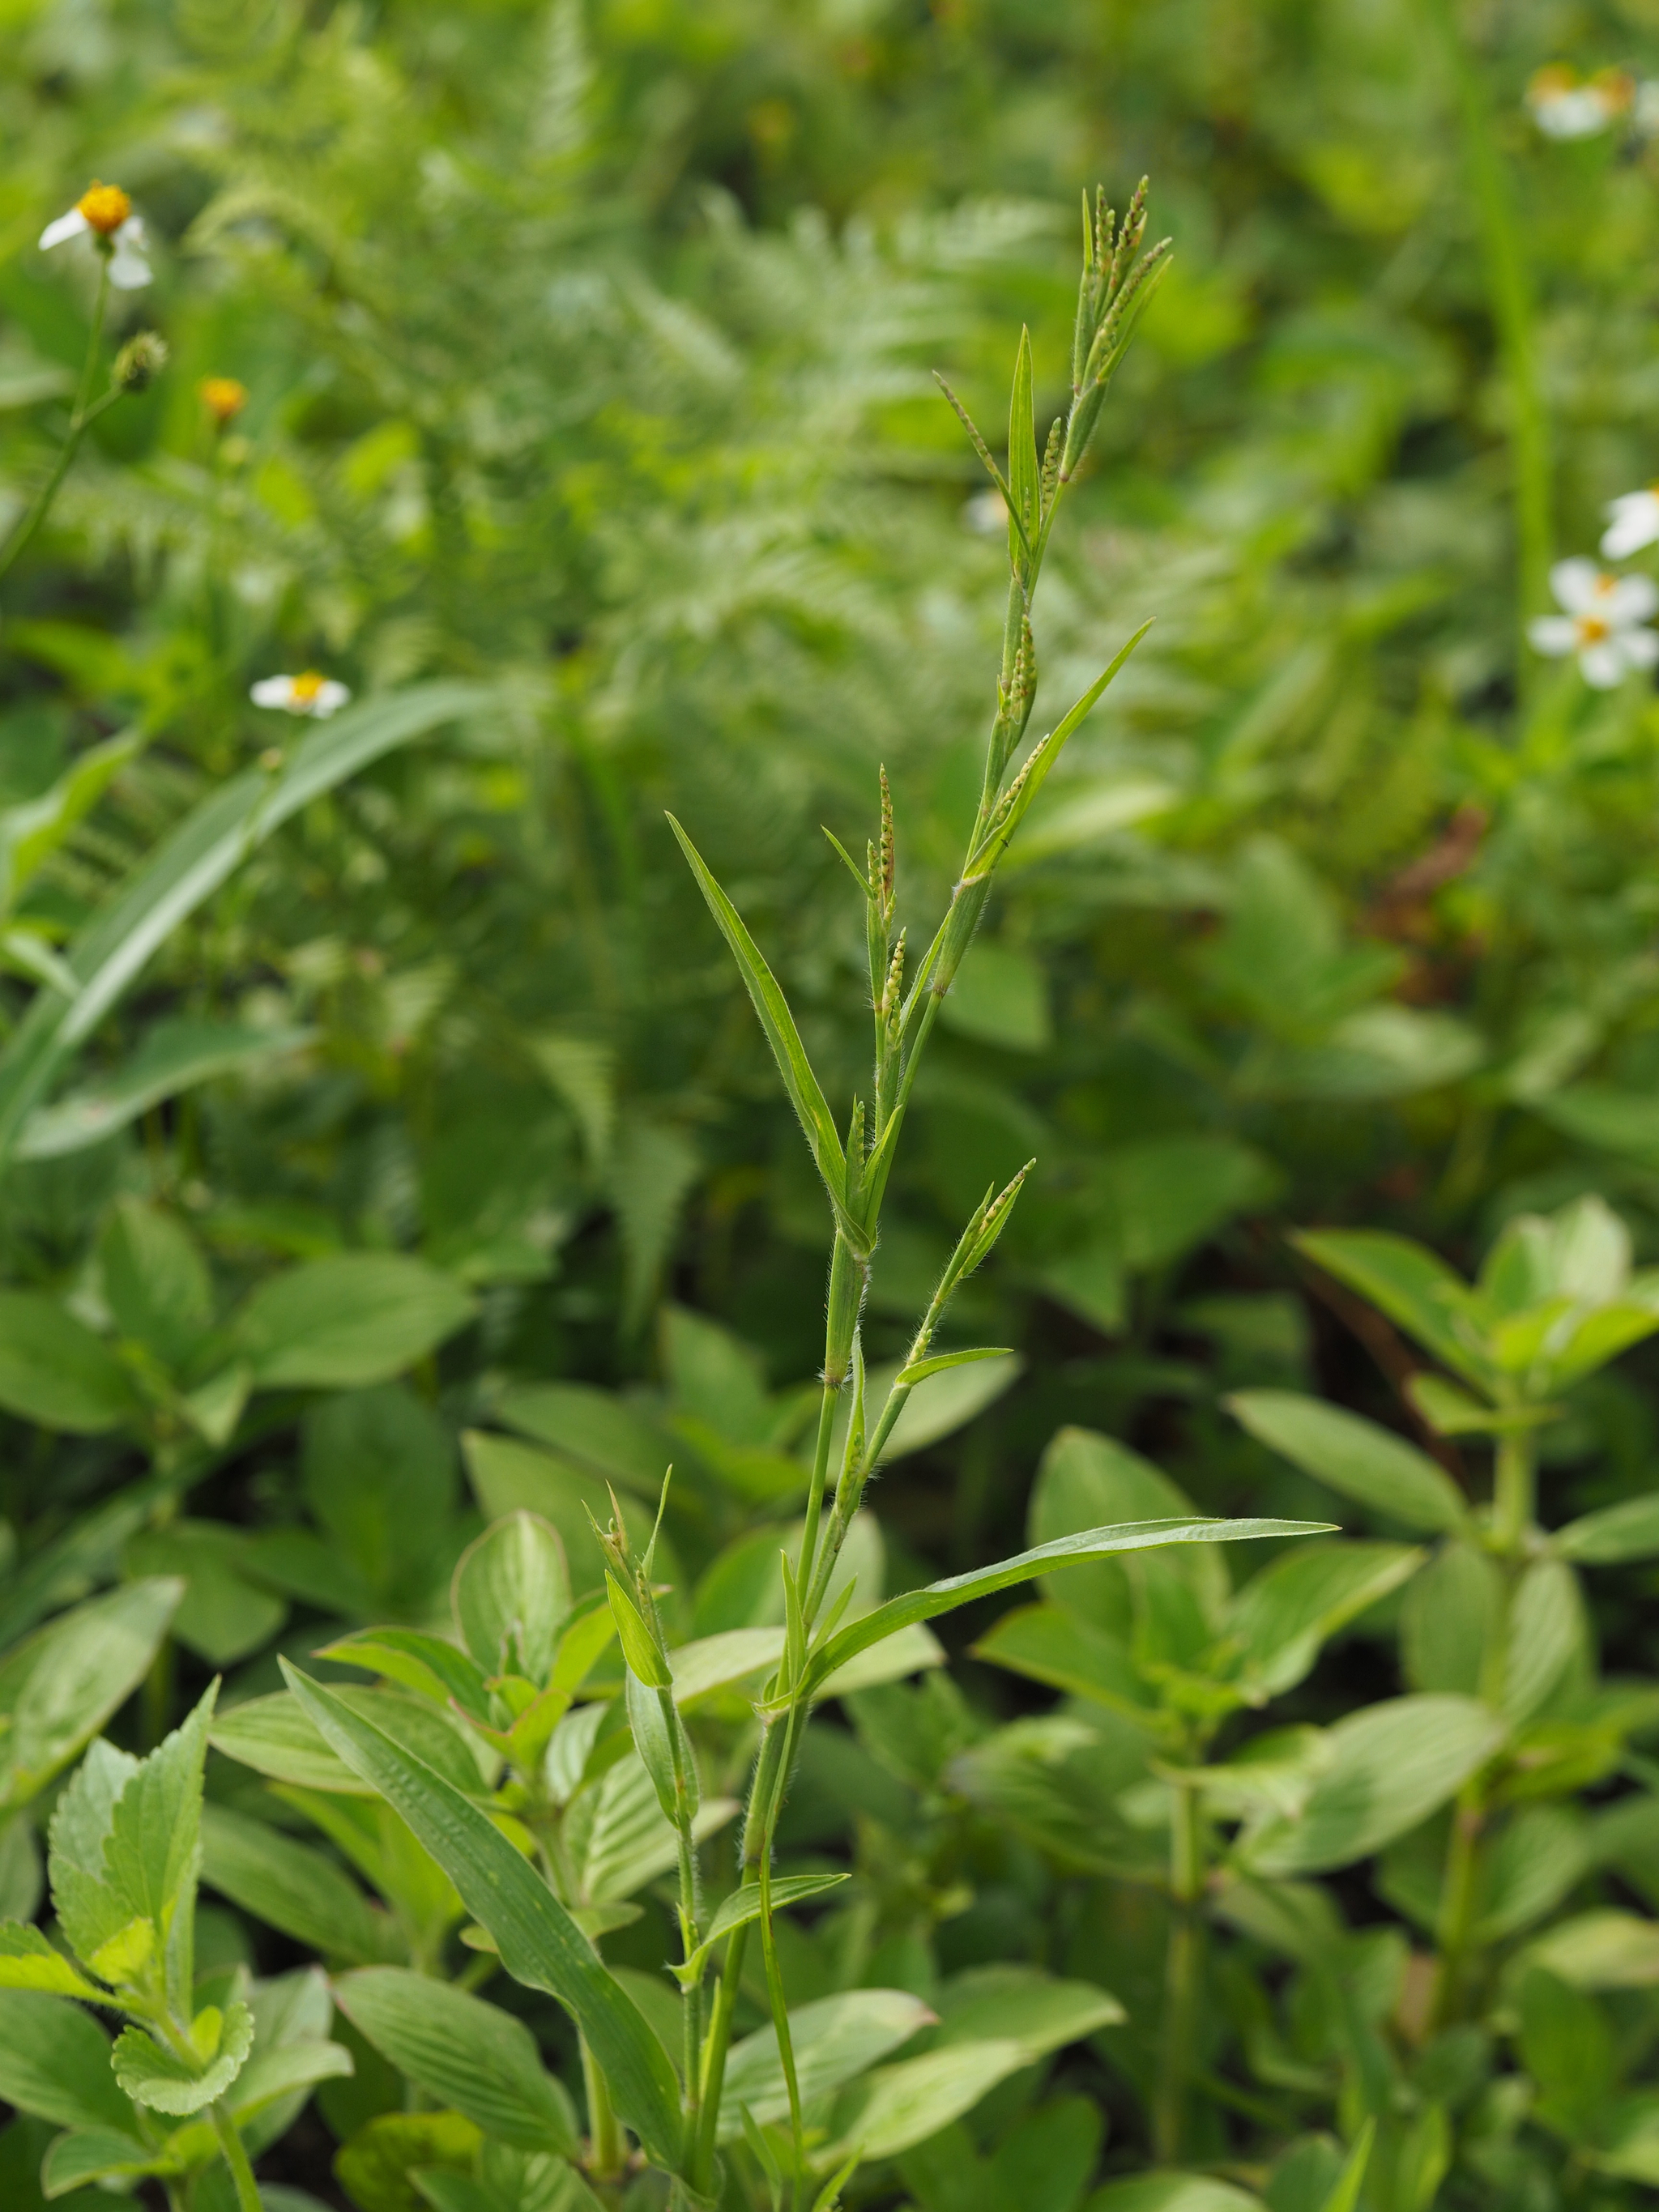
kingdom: Plantae
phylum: Tracheophyta
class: Liliopsida
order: Poales
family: Poaceae
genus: Hackelochloa
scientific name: Hackelochloa granularis
